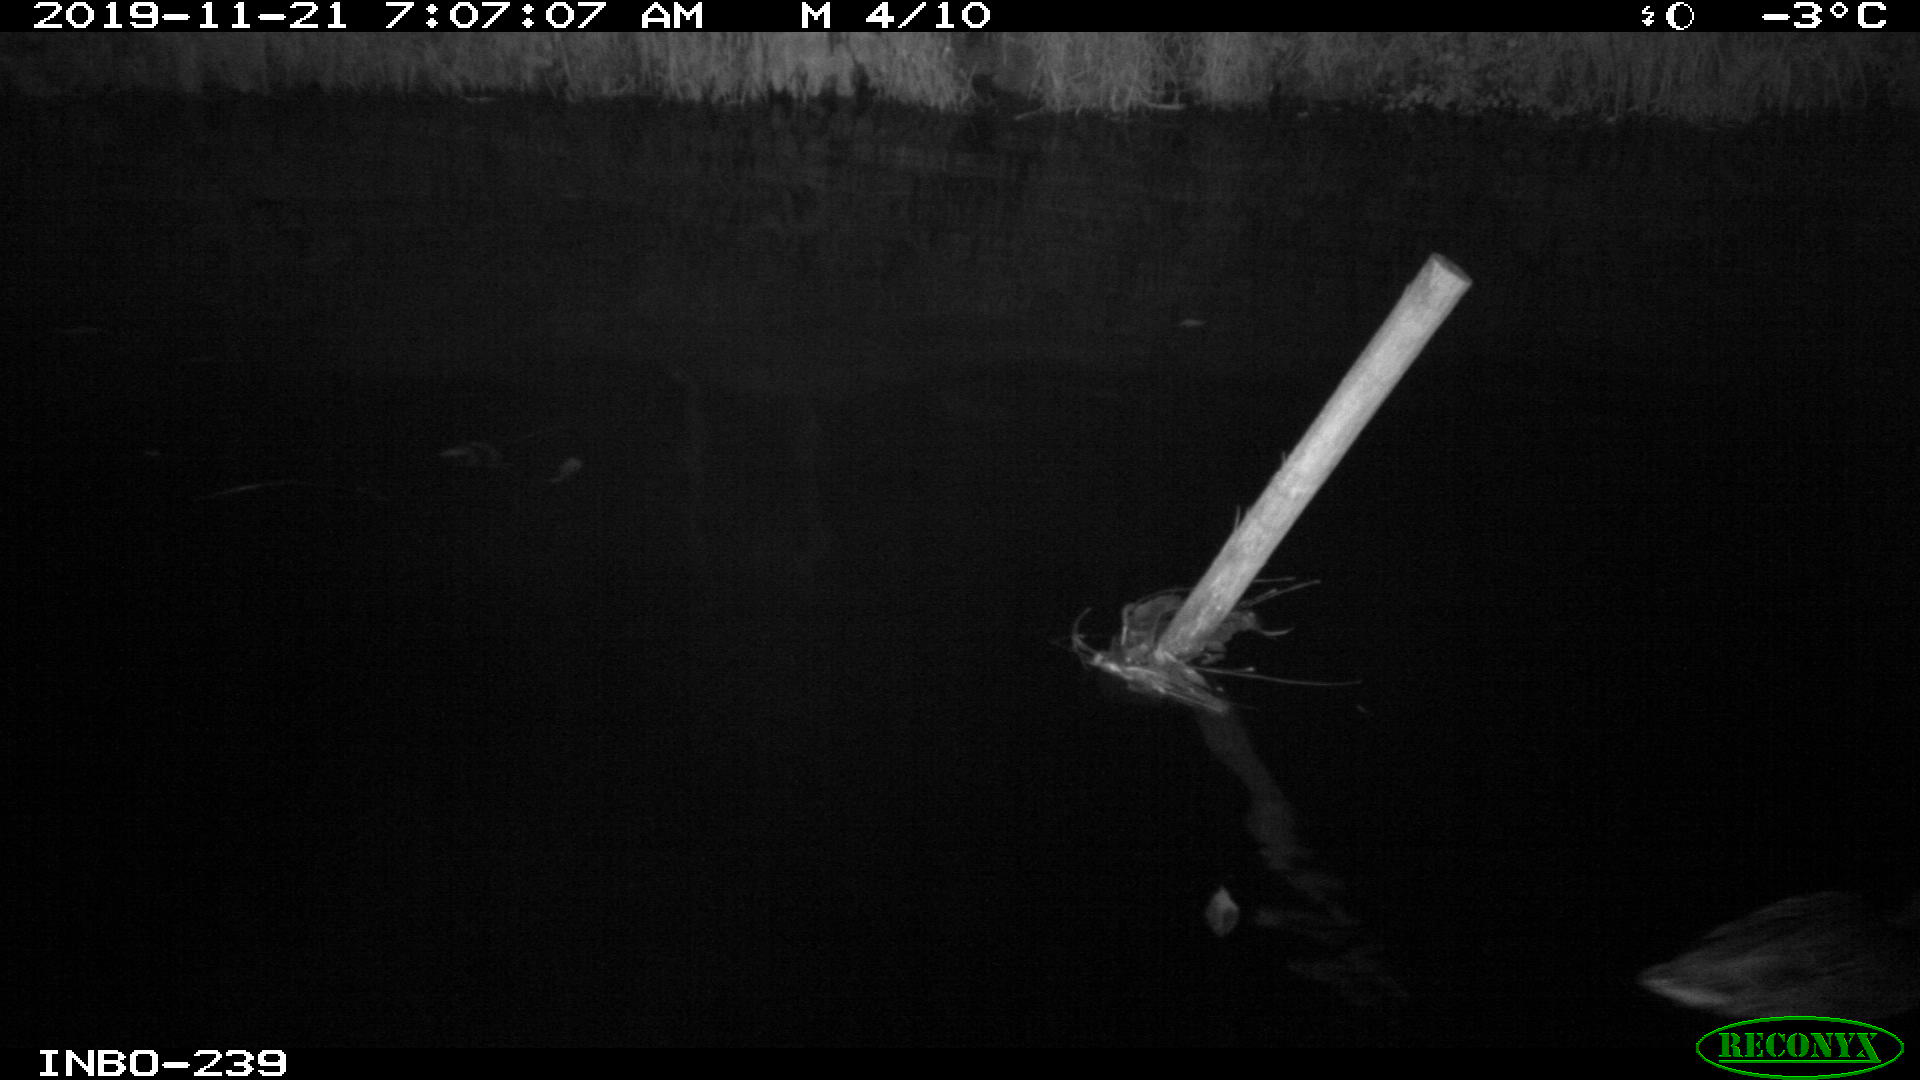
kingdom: Animalia
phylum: Chordata
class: Aves
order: Anseriformes
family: Anatidae
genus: Anas
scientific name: Anas platyrhynchos
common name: Mallard
